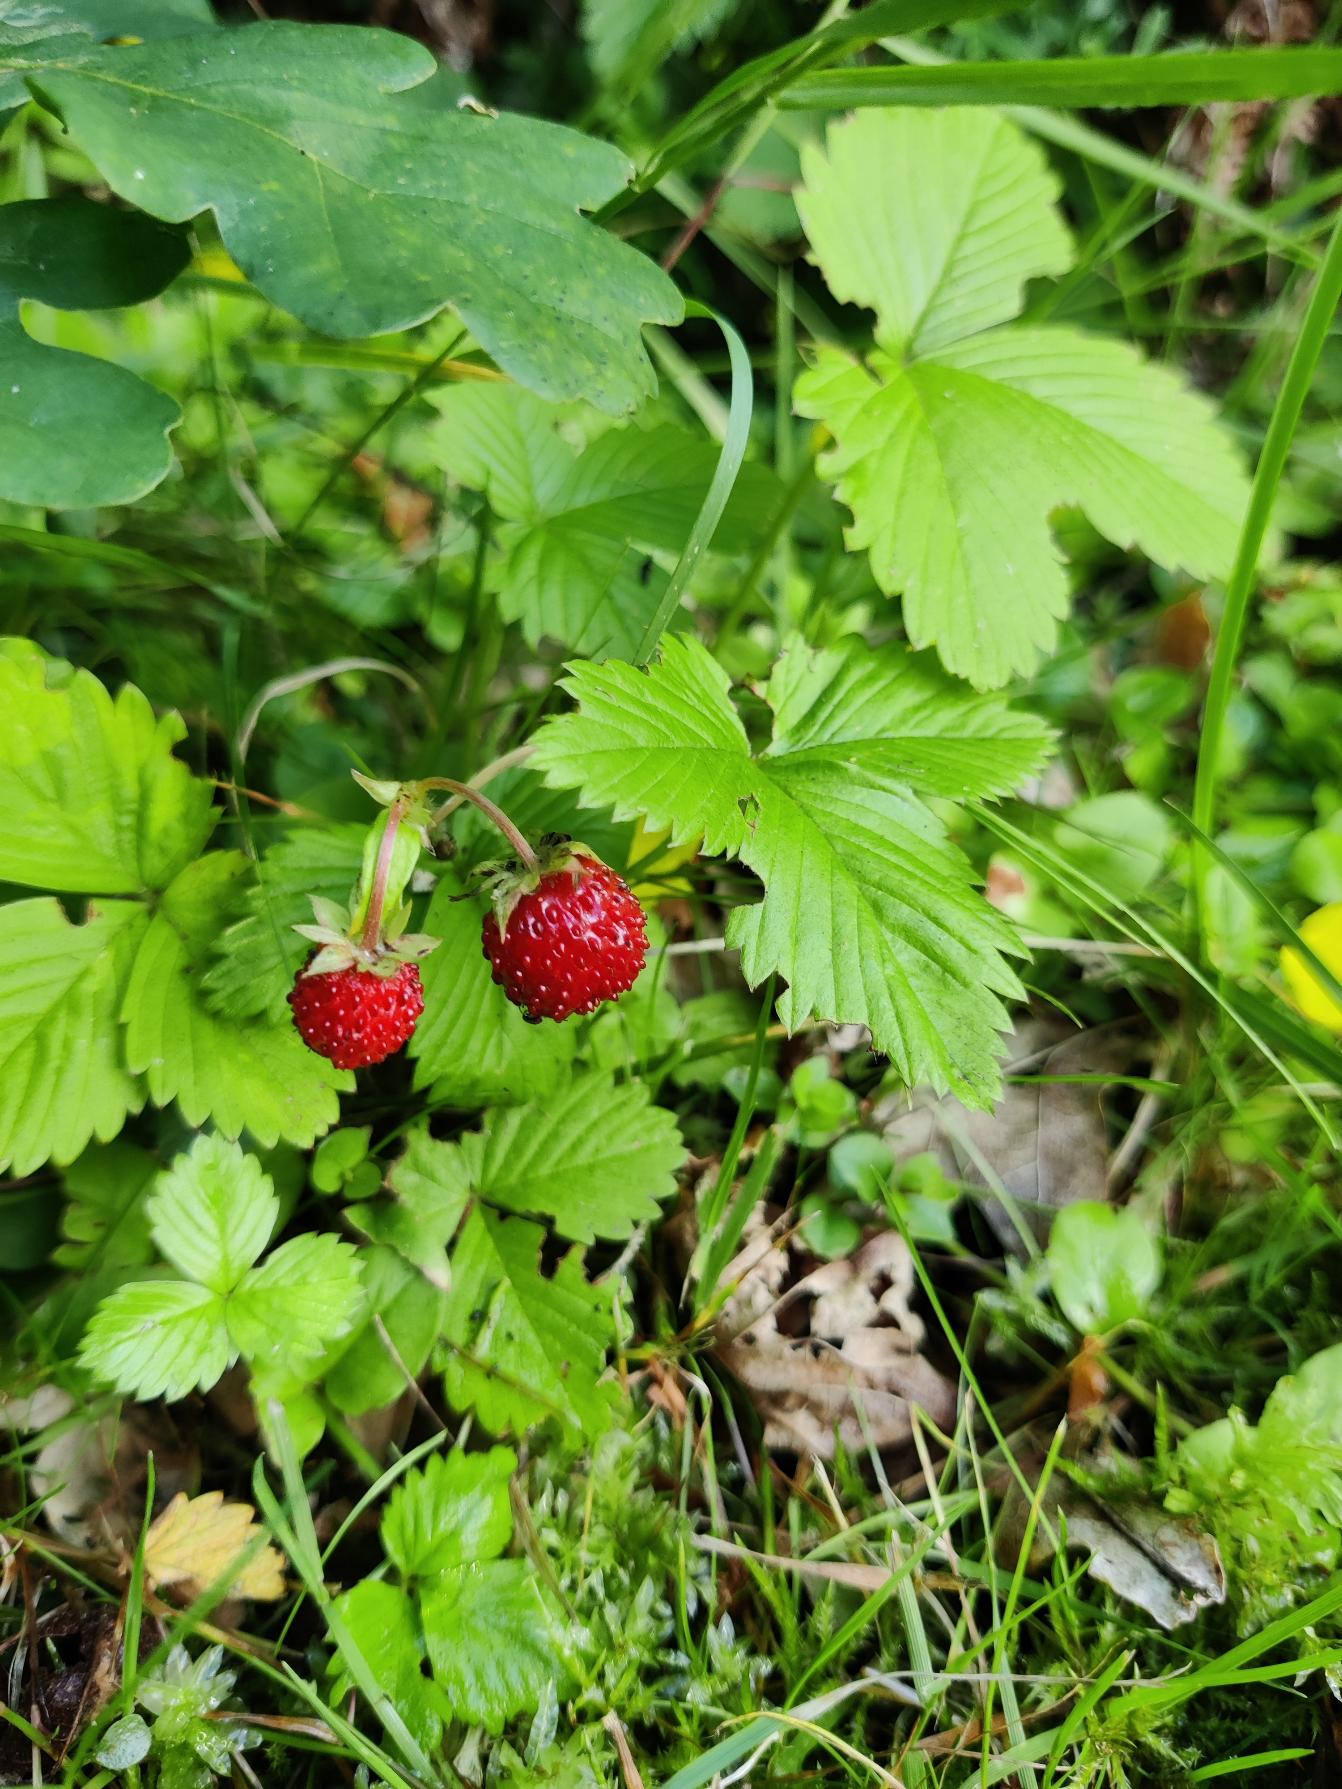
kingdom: Plantae
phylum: Tracheophyta
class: Magnoliopsida
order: Rosales
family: Rosaceae
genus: Fragaria
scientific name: Fragaria vesca
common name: Skov-jordbær
